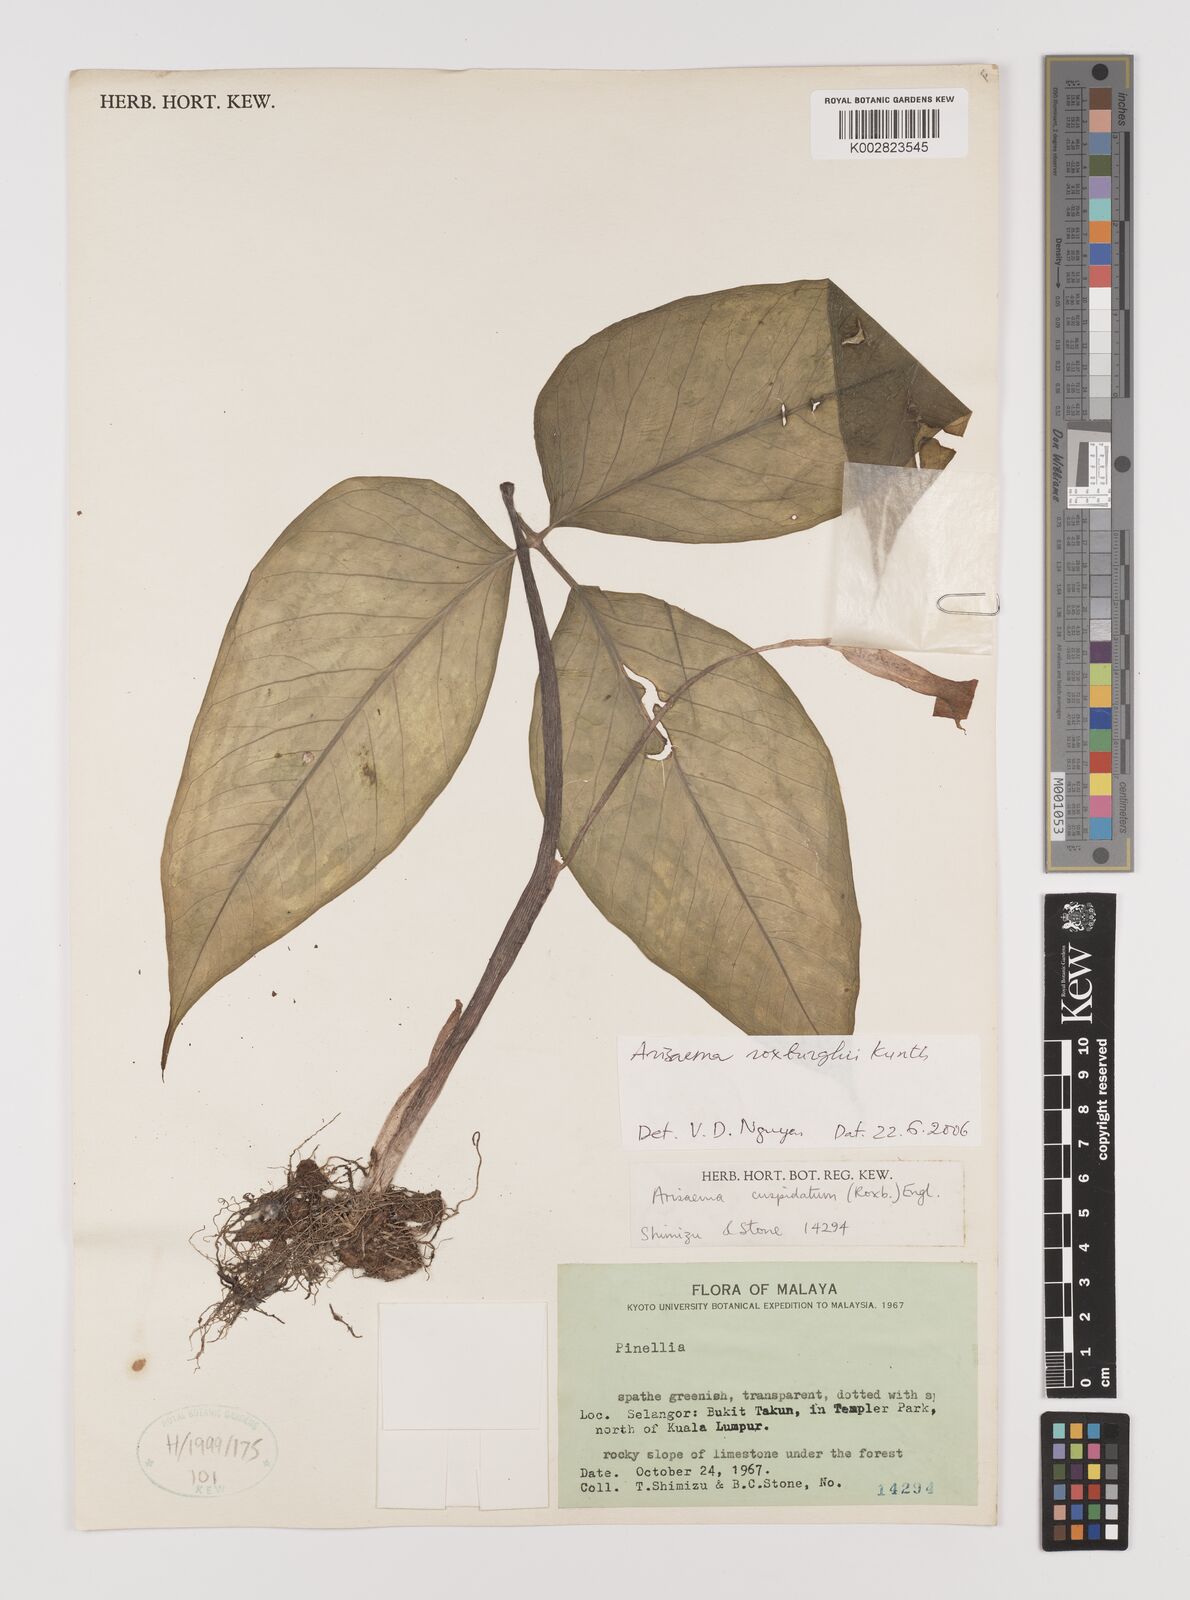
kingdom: Plantae
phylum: Tracheophyta
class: Liliopsida
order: Alismatales
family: Araceae
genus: Arisaema
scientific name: Arisaema roxburghii
